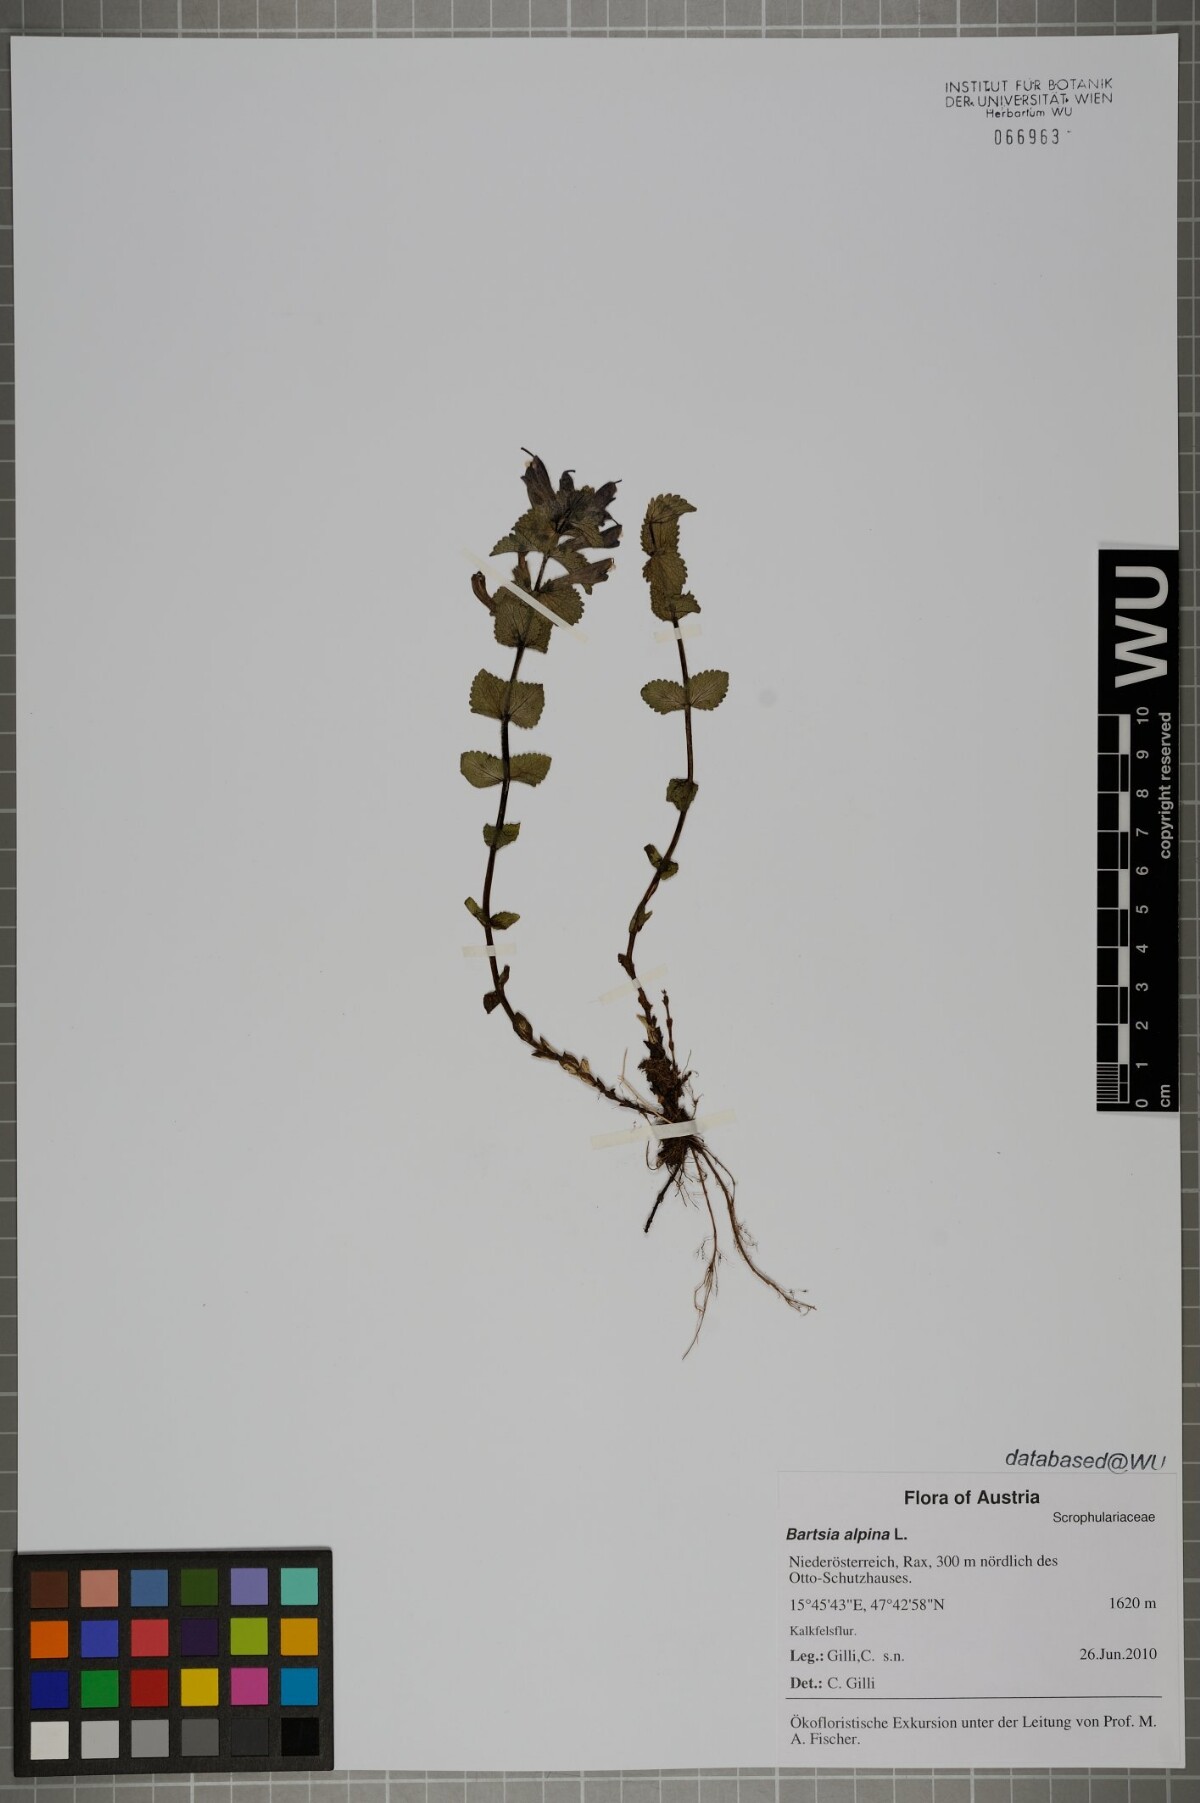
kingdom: Plantae
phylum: Tracheophyta
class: Magnoliopsida
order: Lamiales
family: Orobanchaceae
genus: Bartsia
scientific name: Bartsia alpina
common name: Alpine bartsia
